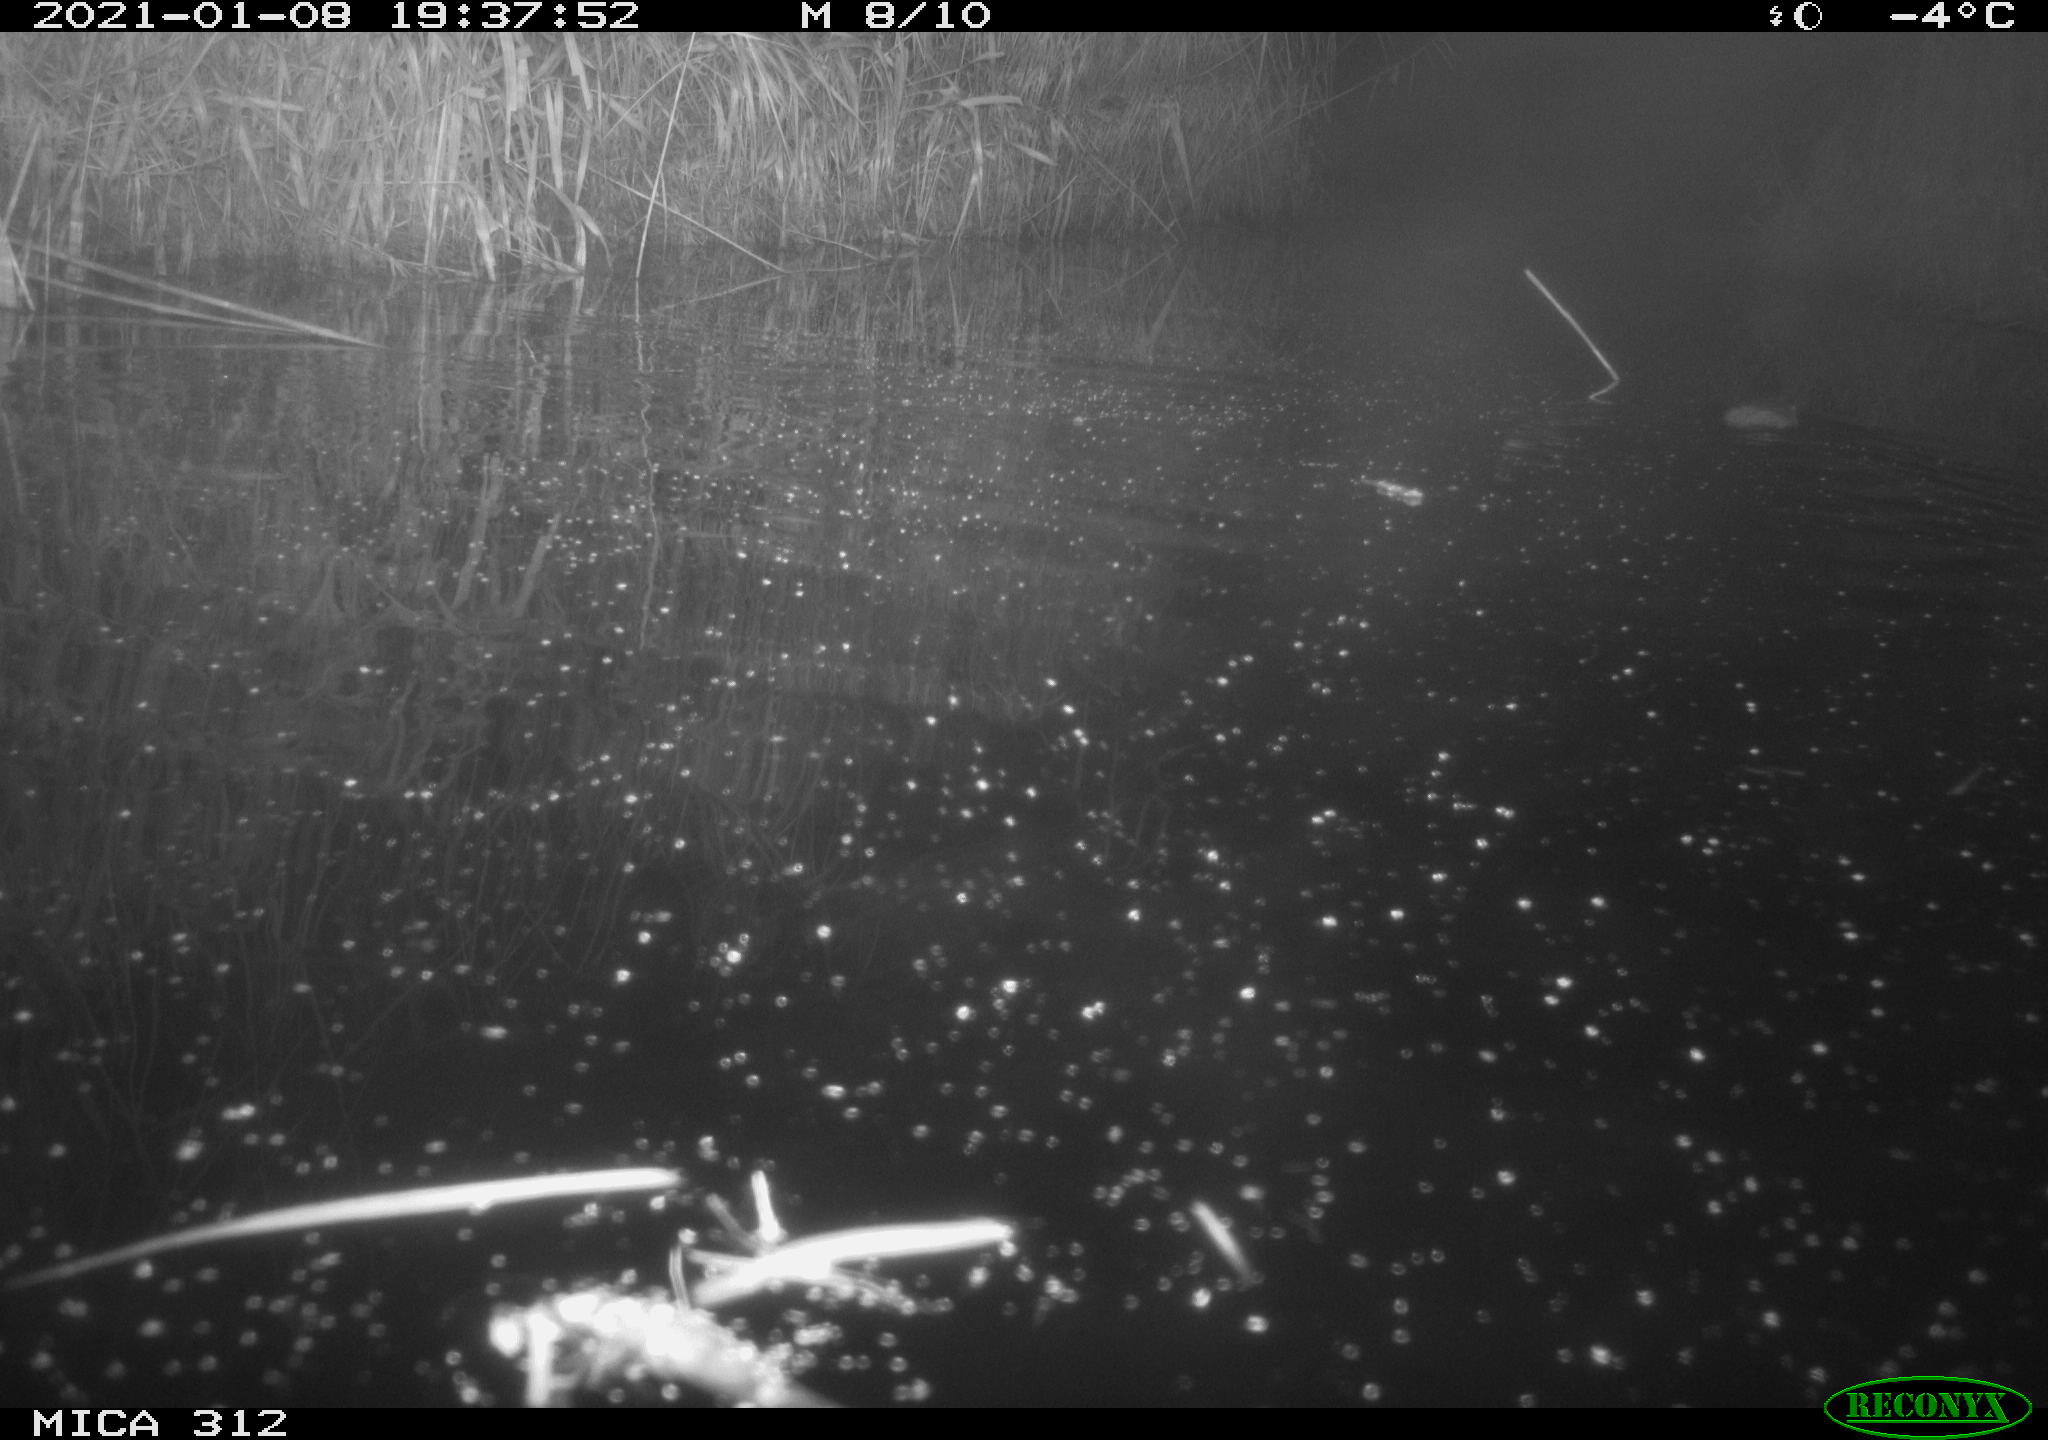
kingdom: Animalia
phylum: Chordata
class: Mammalia
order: Rodentia
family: Muridae
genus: Rattus
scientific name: Rattus norvegicus
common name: Brown rat
